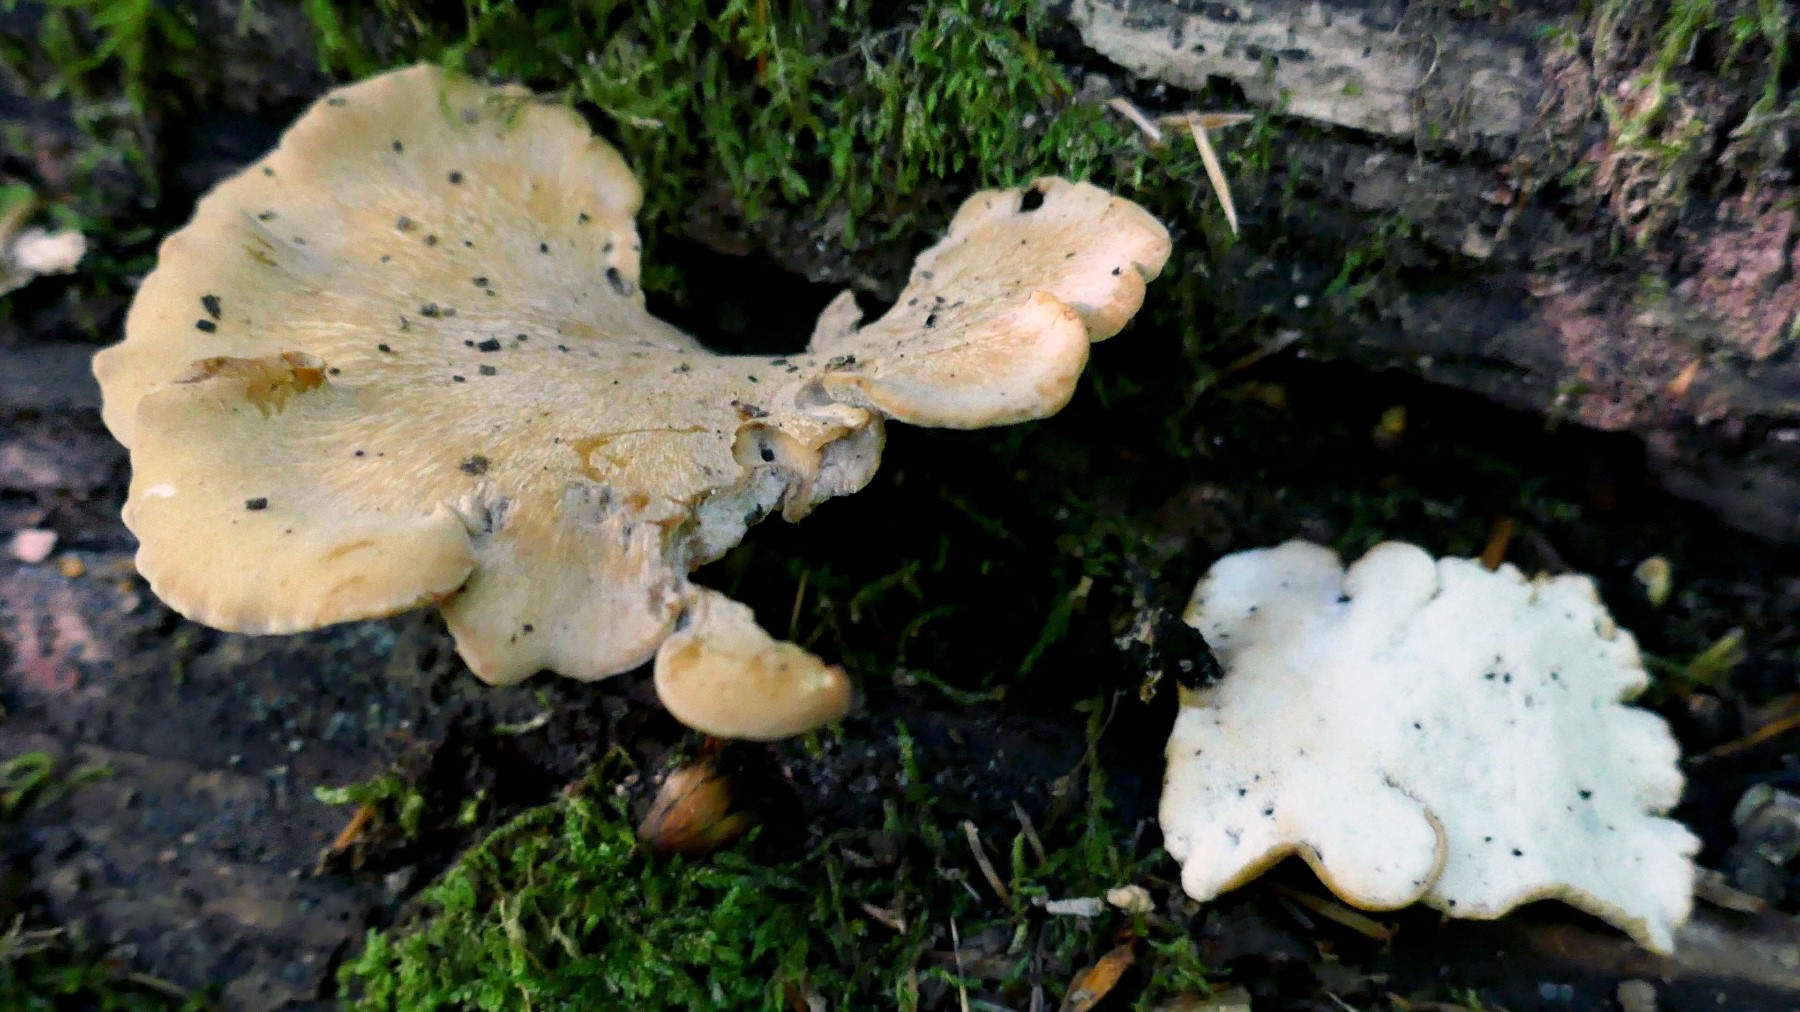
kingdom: Fungi
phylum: Basidiomycota
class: Agaricomycetes
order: Polyporales
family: Polyporaceae
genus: Cerioporus
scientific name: Cerioporus varius
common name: foranderlig stilkporesvamp
